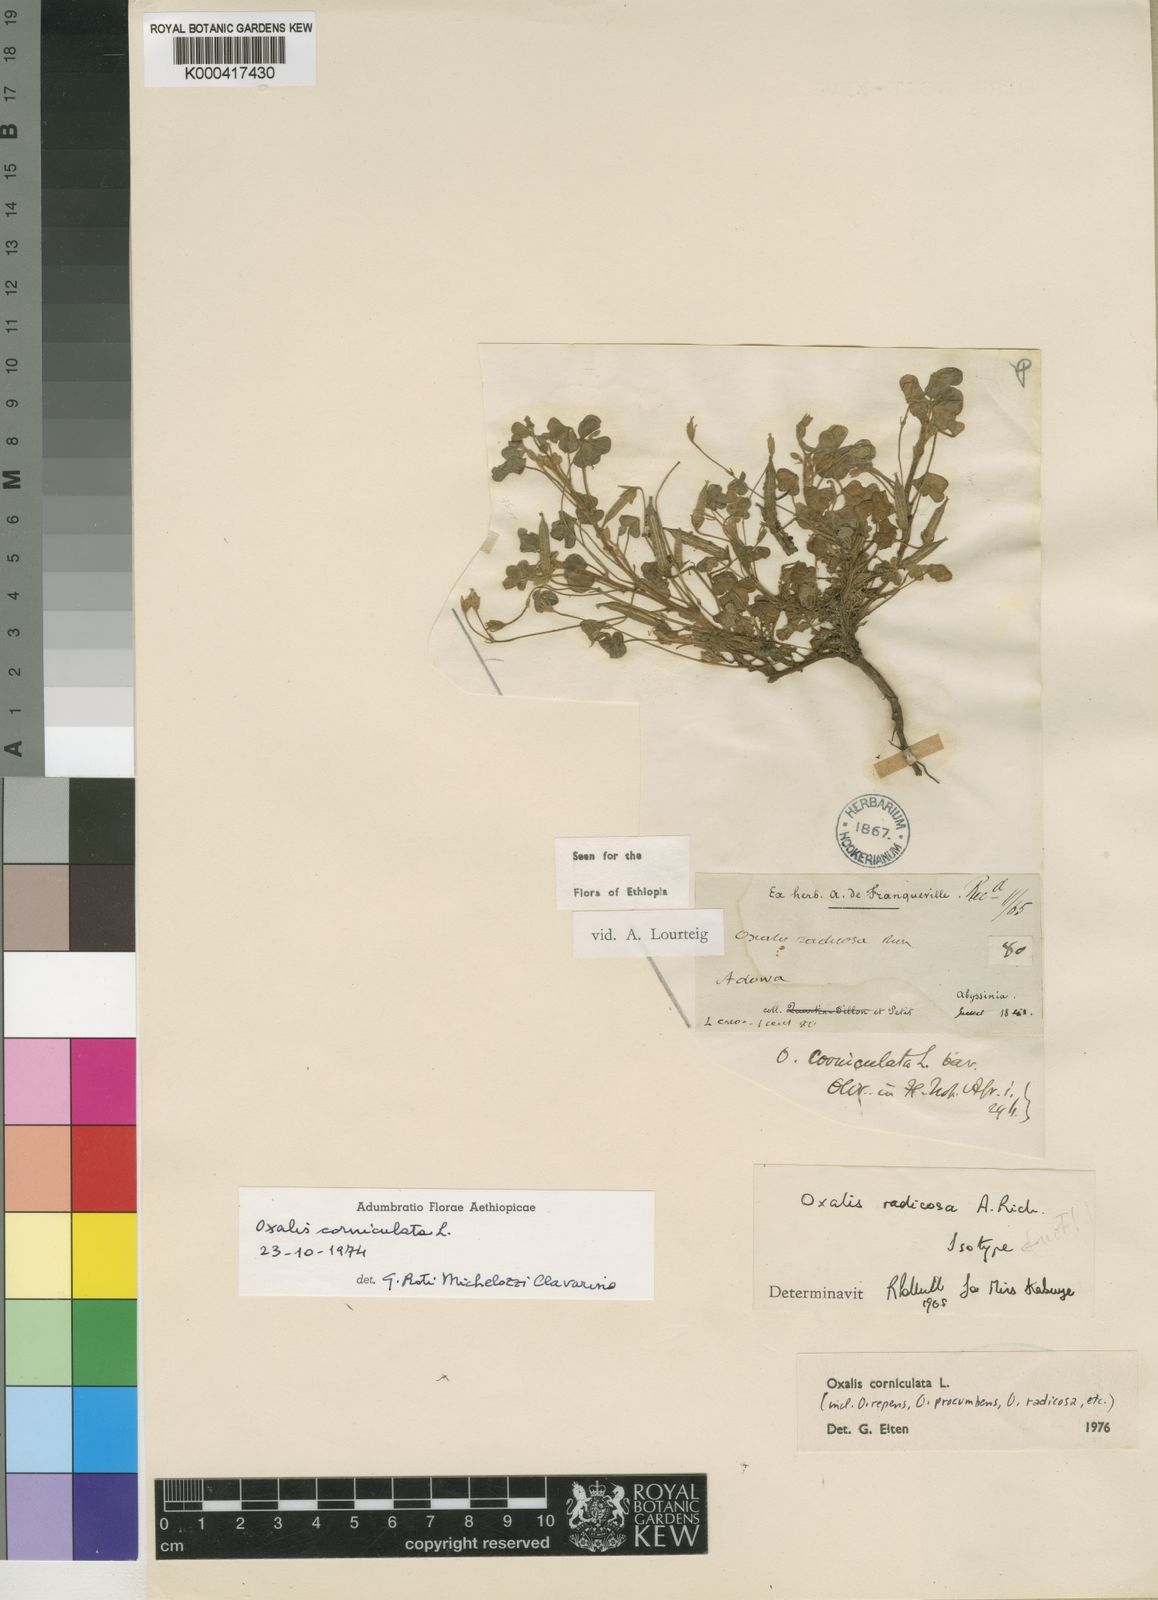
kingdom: Plantae
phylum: Tracheophyta
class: Magnoliopsida
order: Oxalidales
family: Oxalidaceae
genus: Oxalis
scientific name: Oxalis corniculata
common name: Procumbent yellow-sorrel
